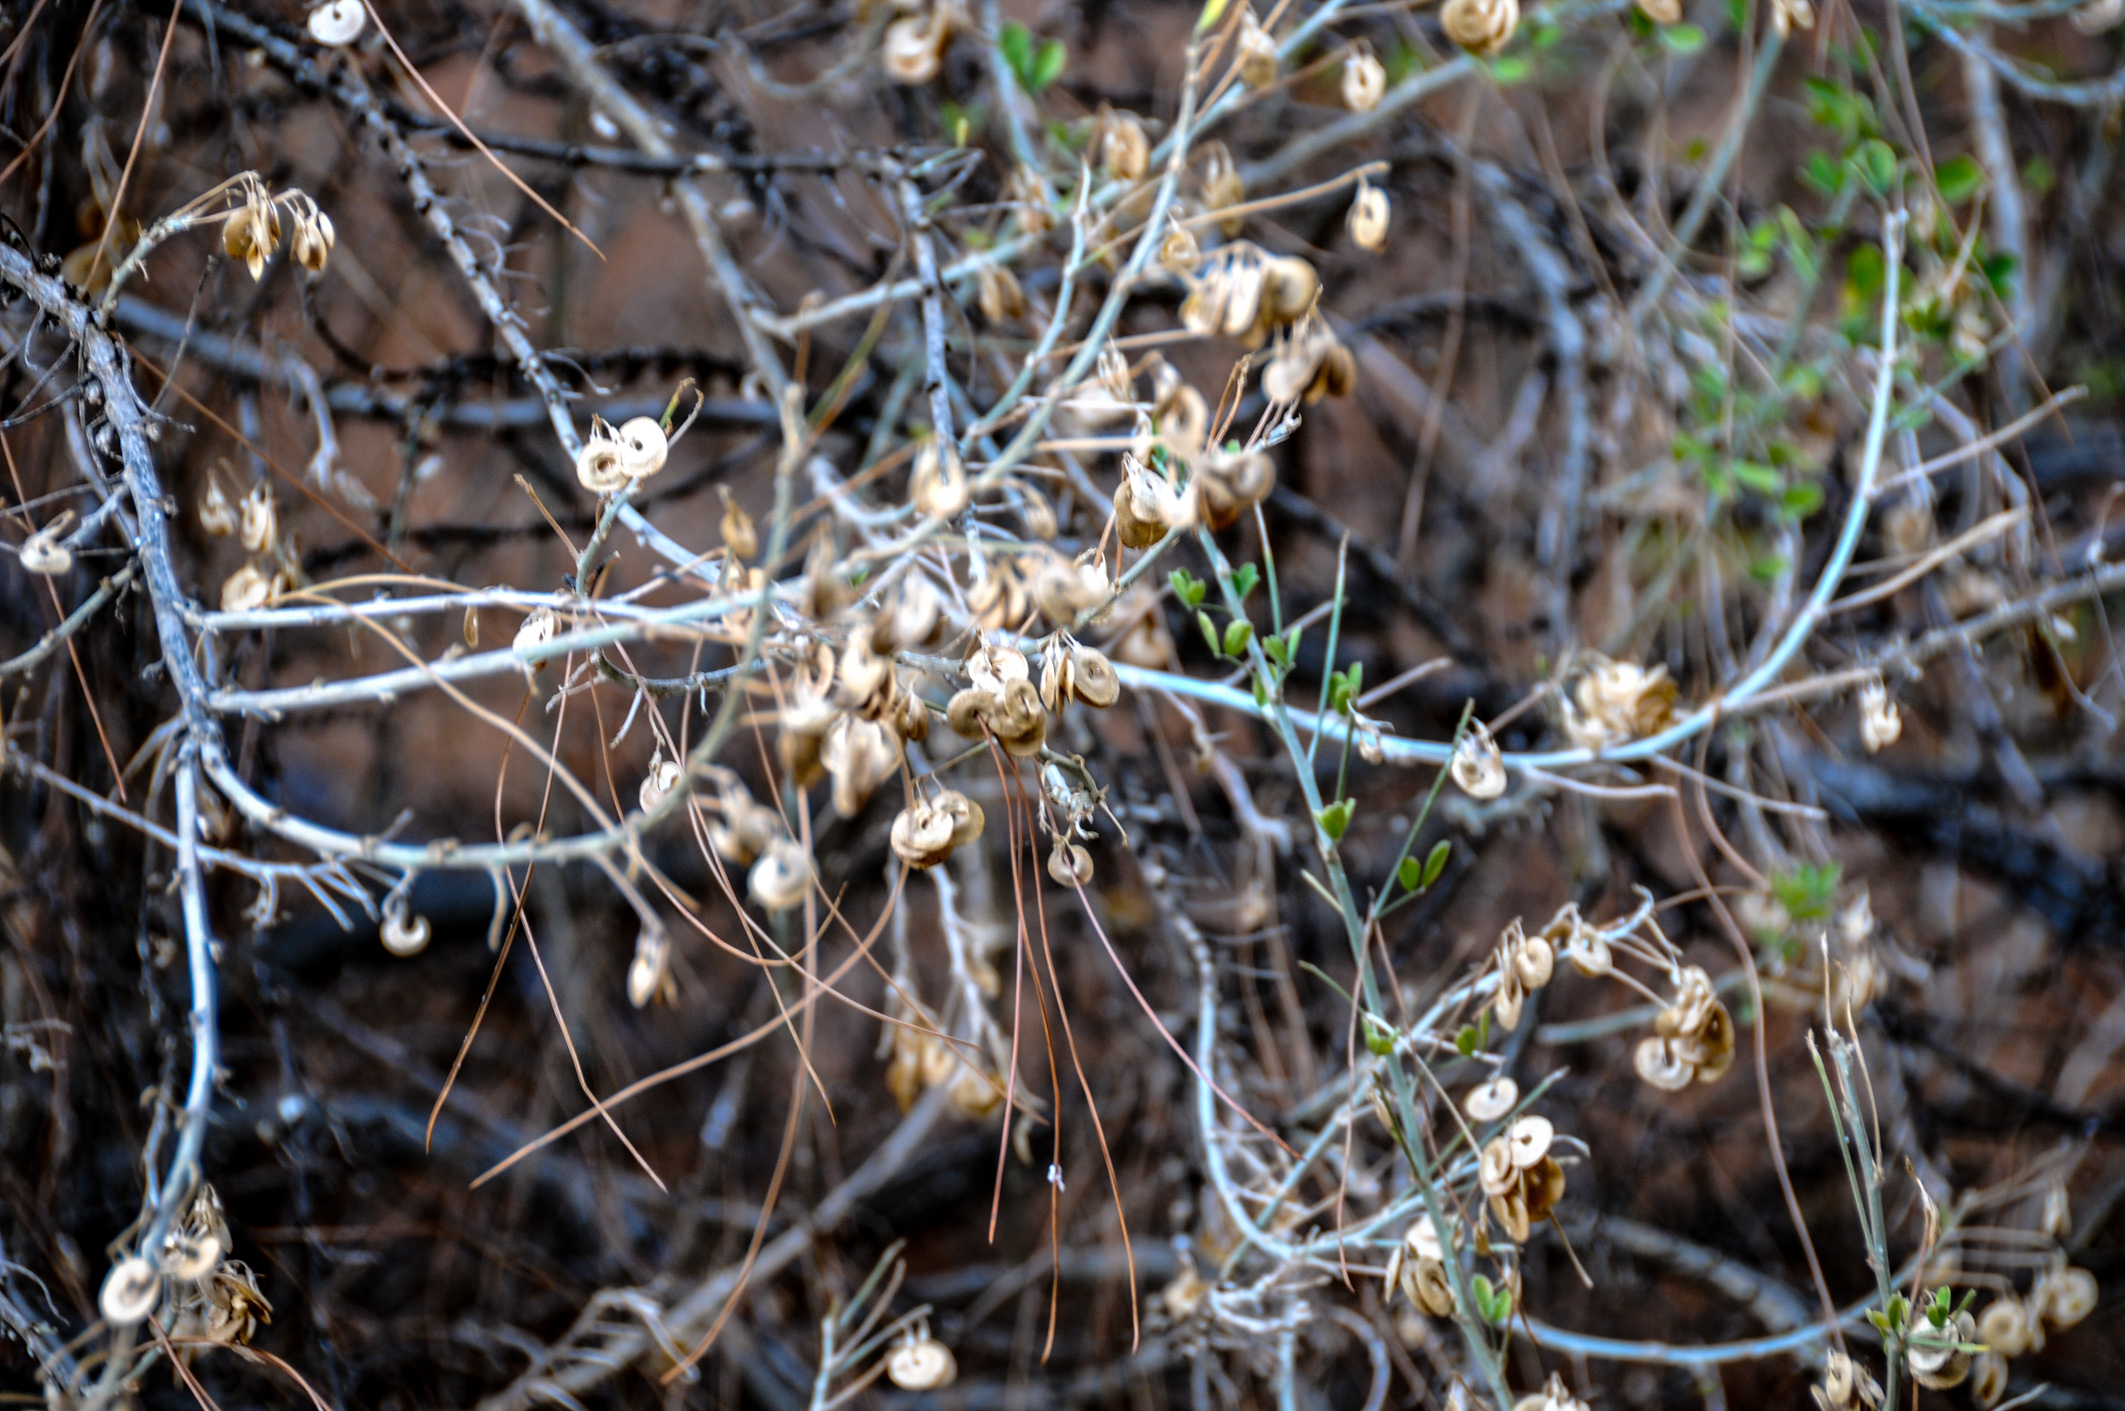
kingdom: Plantae
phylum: Tracheophyta
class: Magnoliopsida
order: Fabales
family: Fabaceae
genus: Medicago
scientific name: Medicago arborea
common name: Moon trefoil
